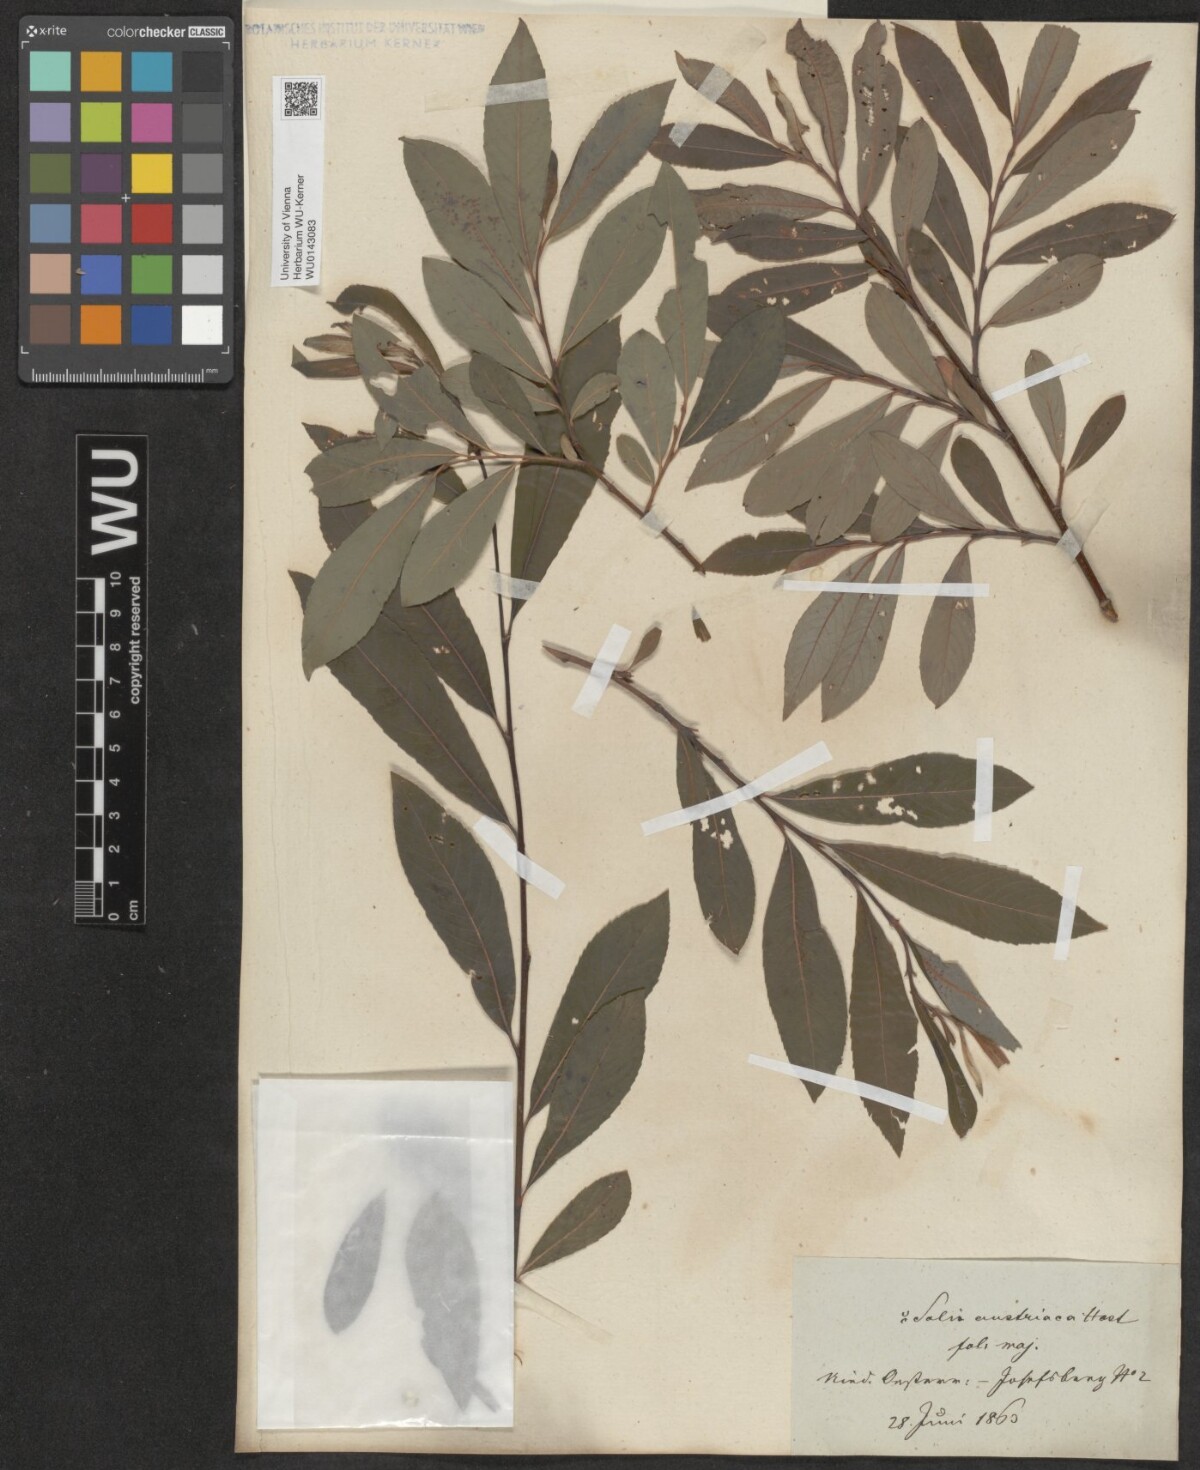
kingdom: Plantae
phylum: Tracheophyta
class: Magnoliopsida
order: Malpighiales
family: Salicaceae
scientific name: Salicaceae
